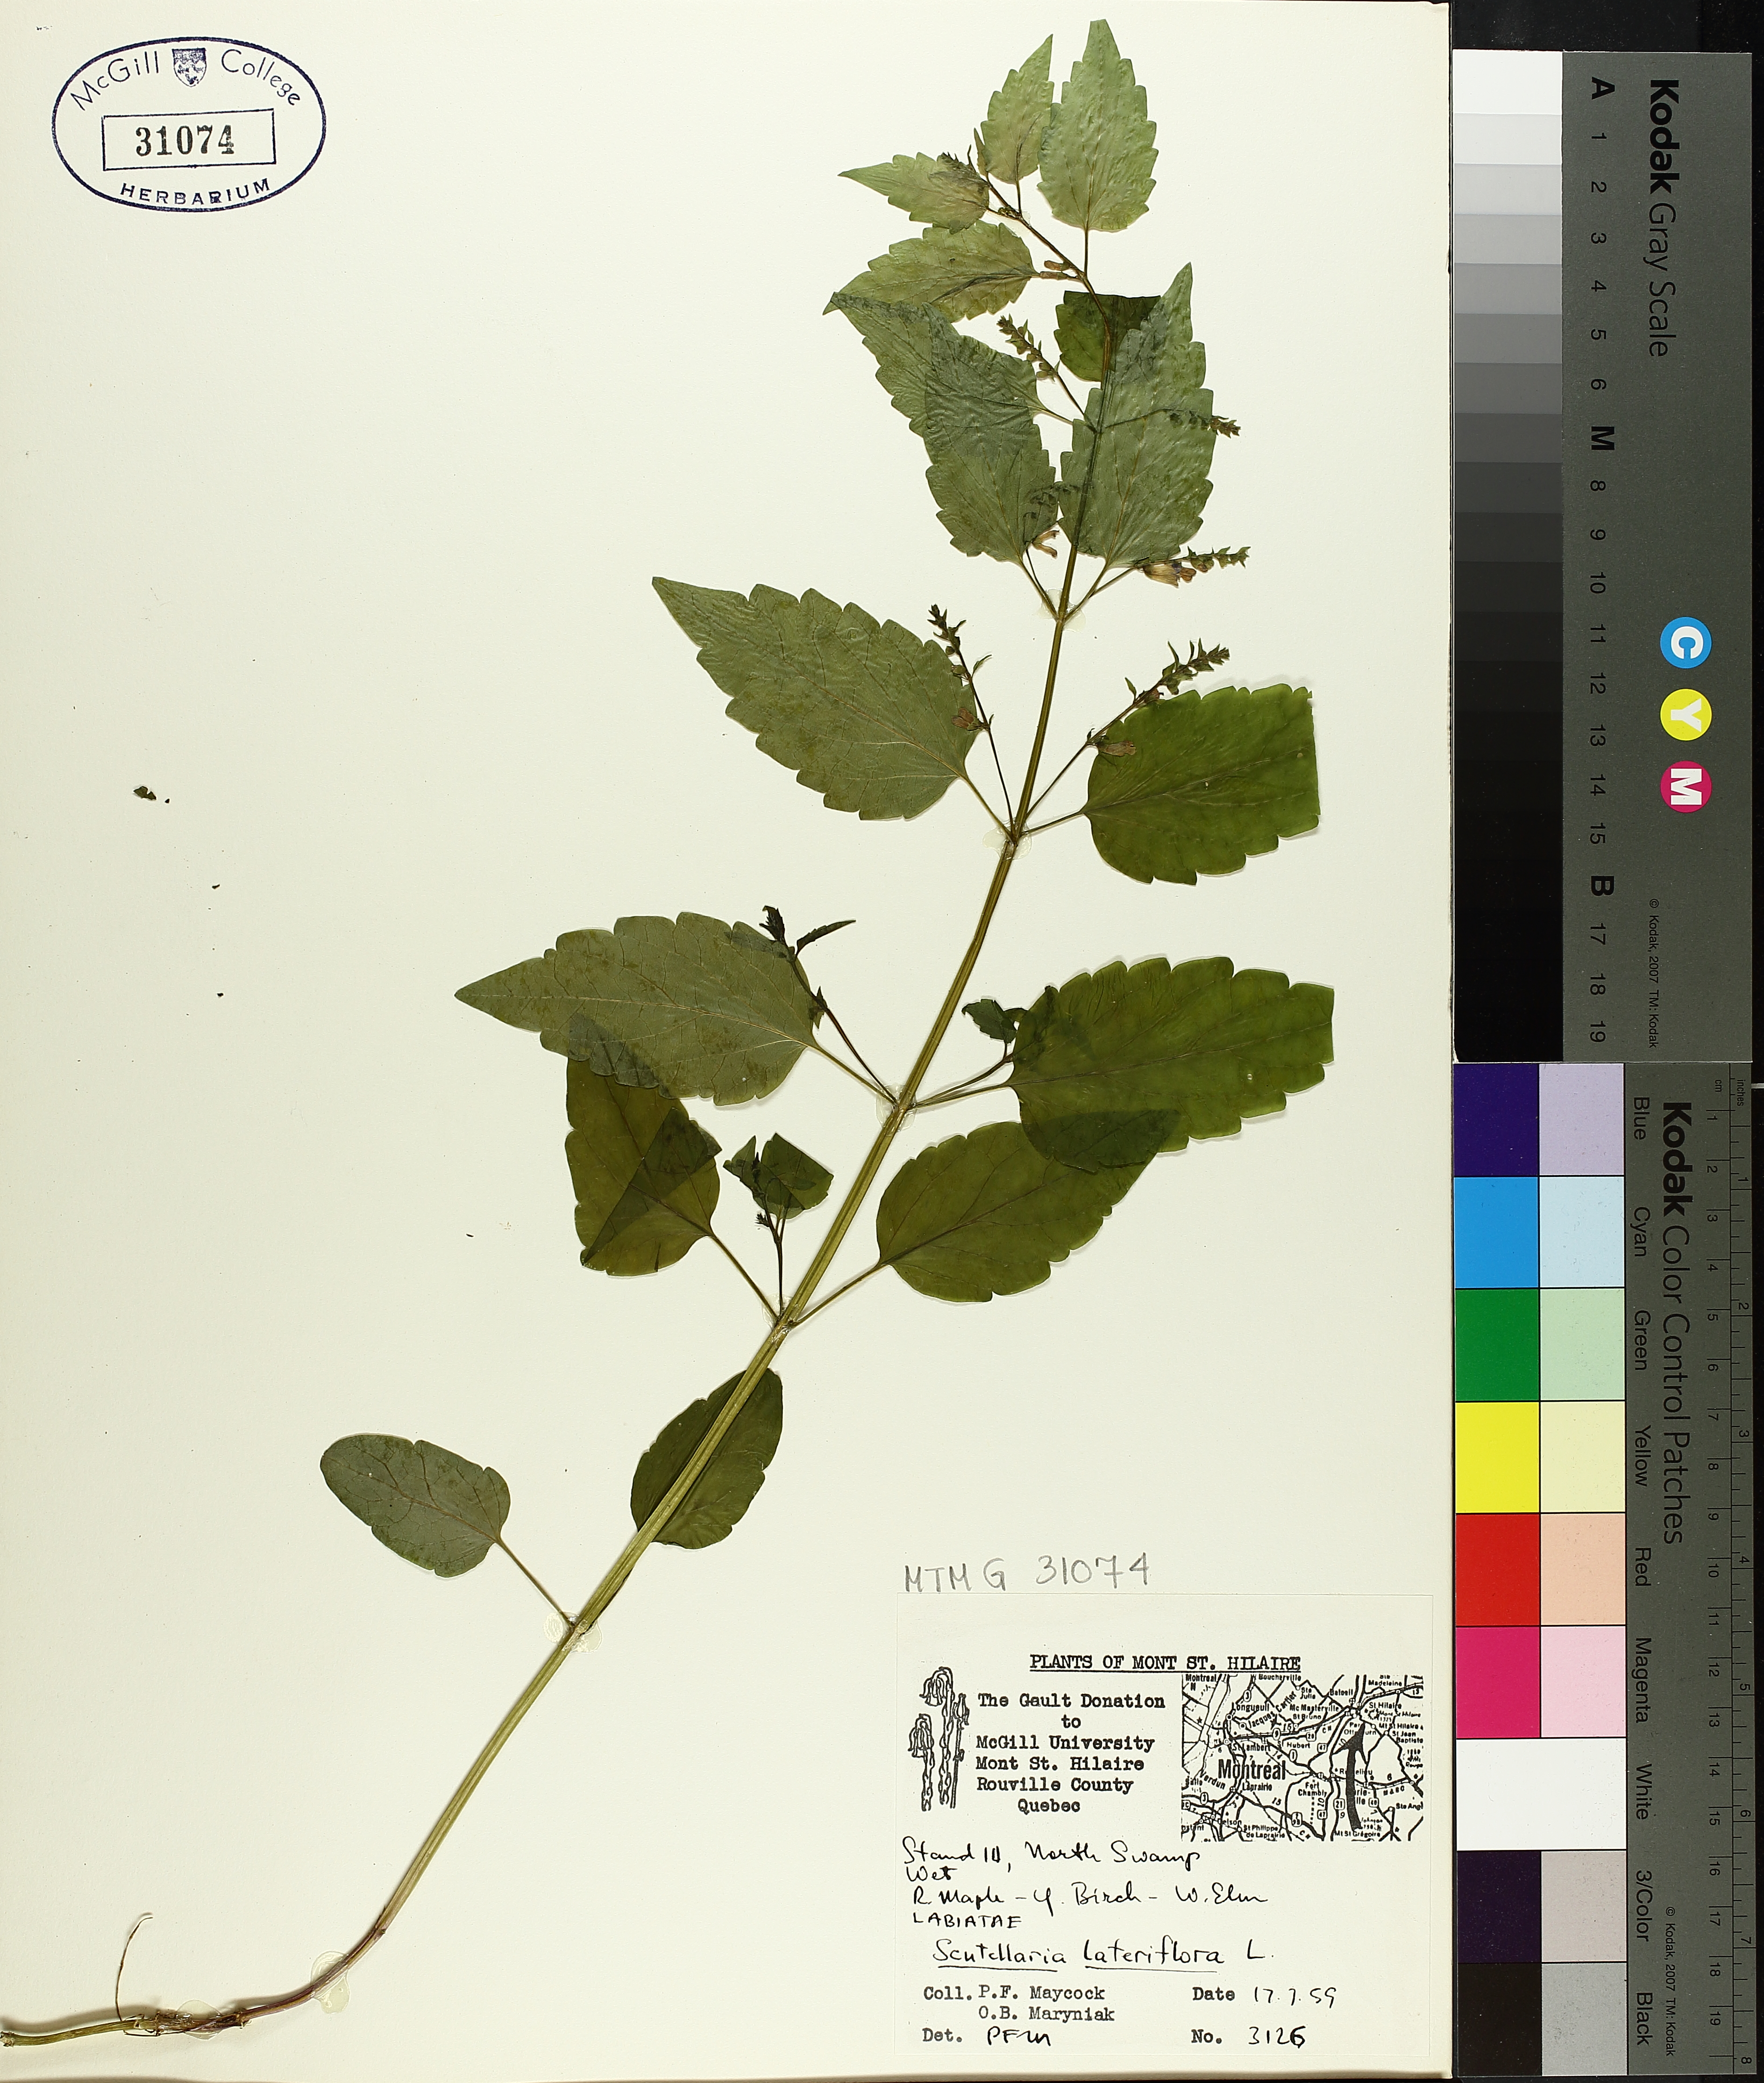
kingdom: Plantae
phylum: Tracheophyta
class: Magnoliopsida
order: Lamiales
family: Lamiaceae
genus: Scutellaria
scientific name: Scutellaria lateriflora
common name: Blue skullcap
